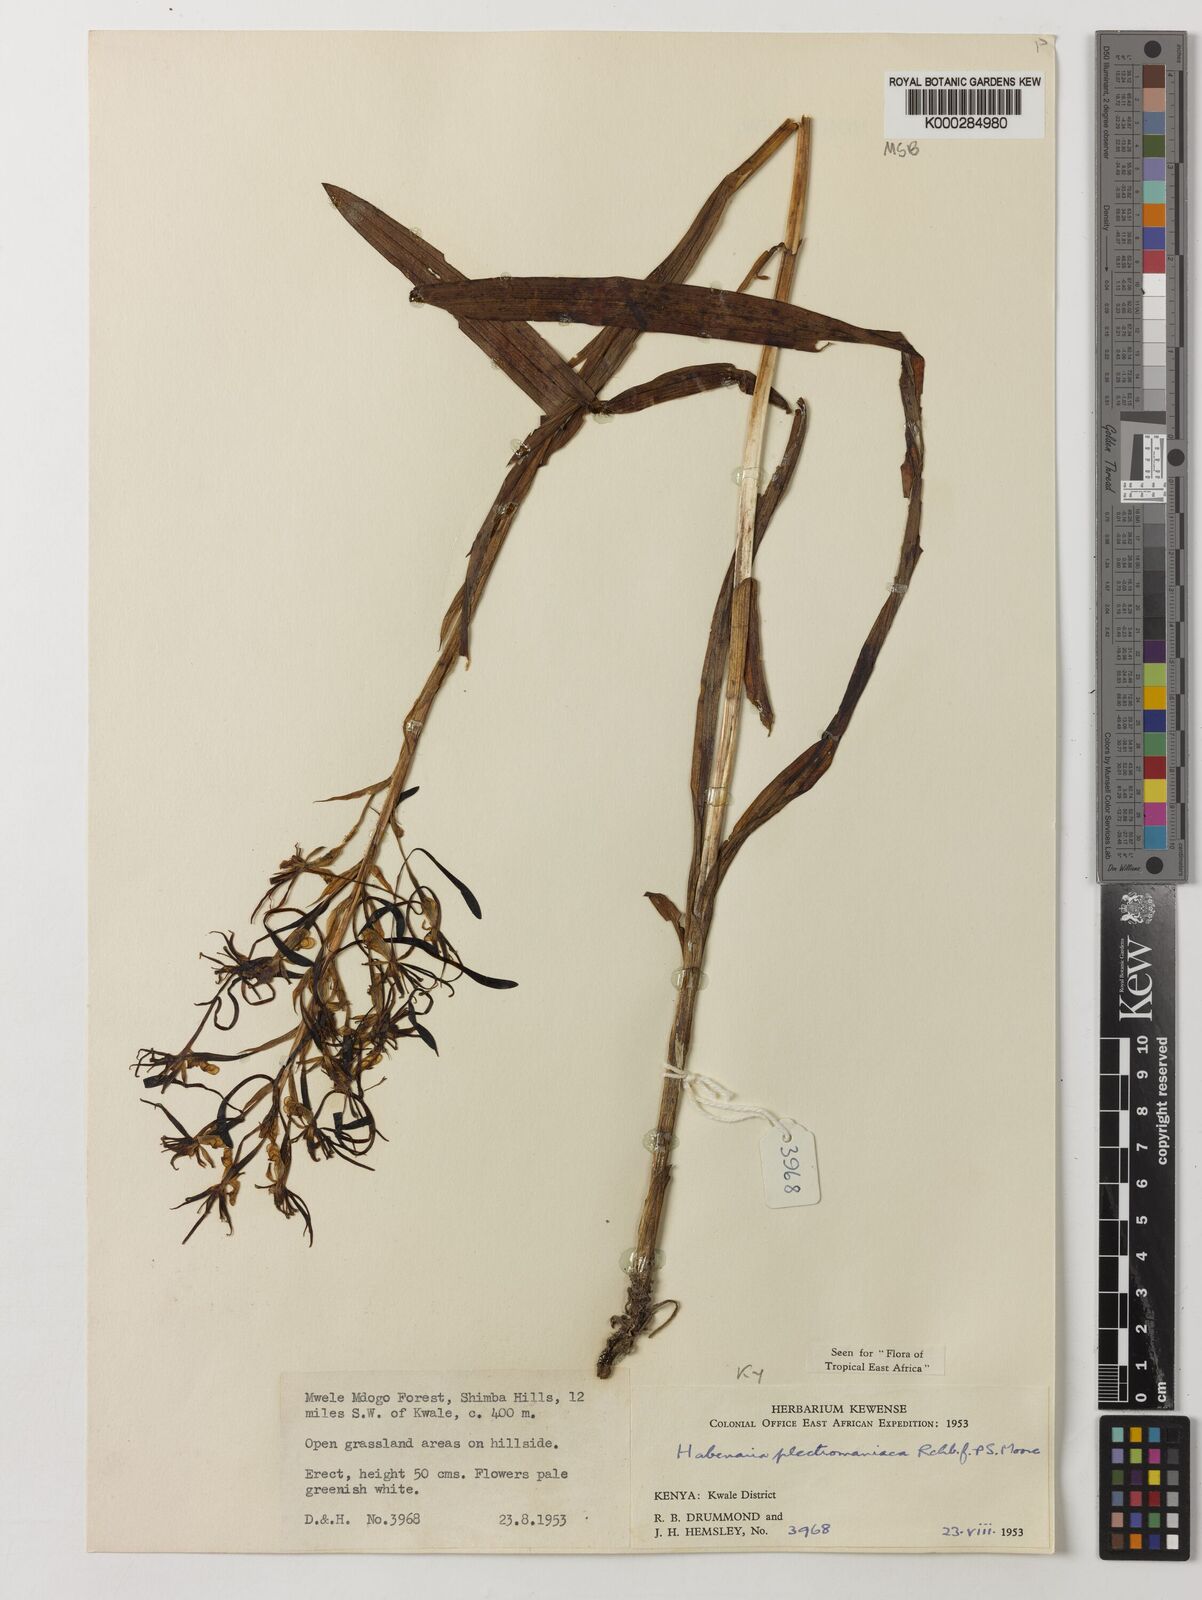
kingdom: Plantae
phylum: Tracheophyta
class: Liliopsida
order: Asparagales
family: Orchidaceae
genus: Habenaria
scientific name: Habenaria plectromaniaca
